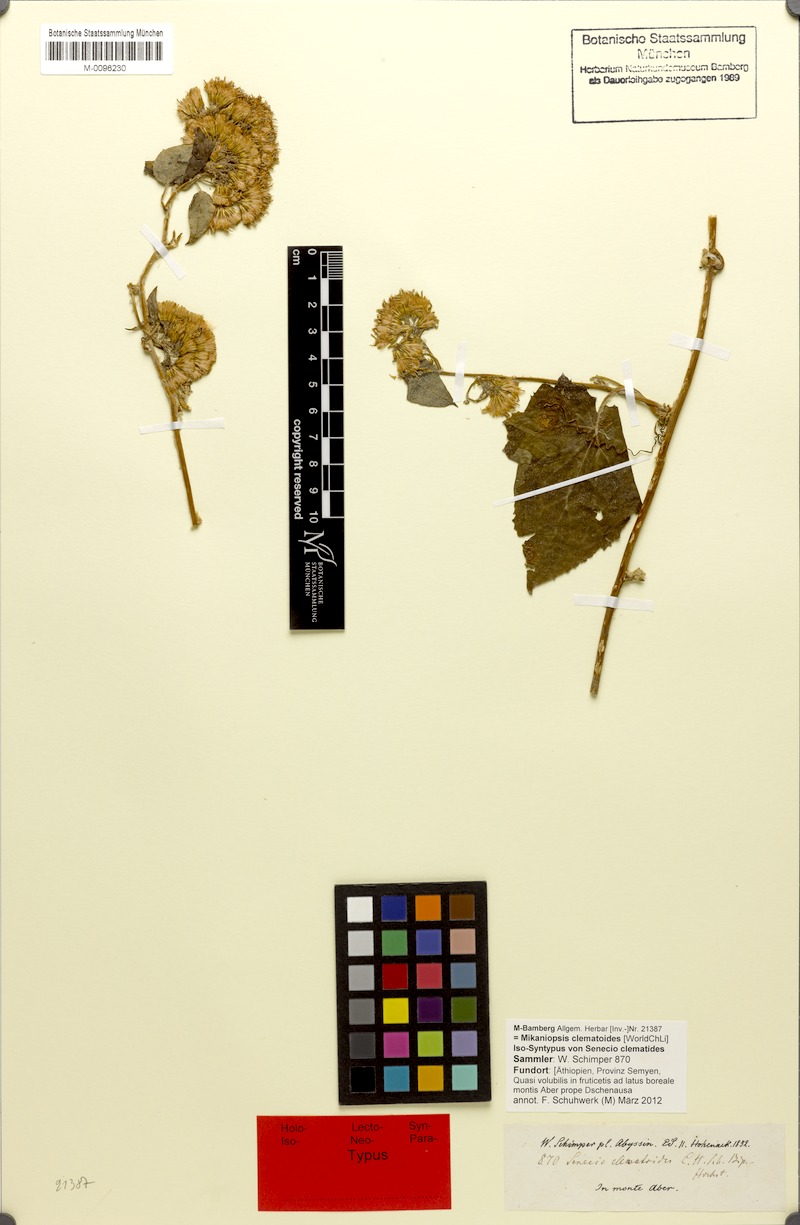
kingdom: Plantae
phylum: Tracheophyta
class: Magnoliopsida
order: Asterales
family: Asteraceae
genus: Mikaniopsis
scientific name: Mikaniopsis clematoides
